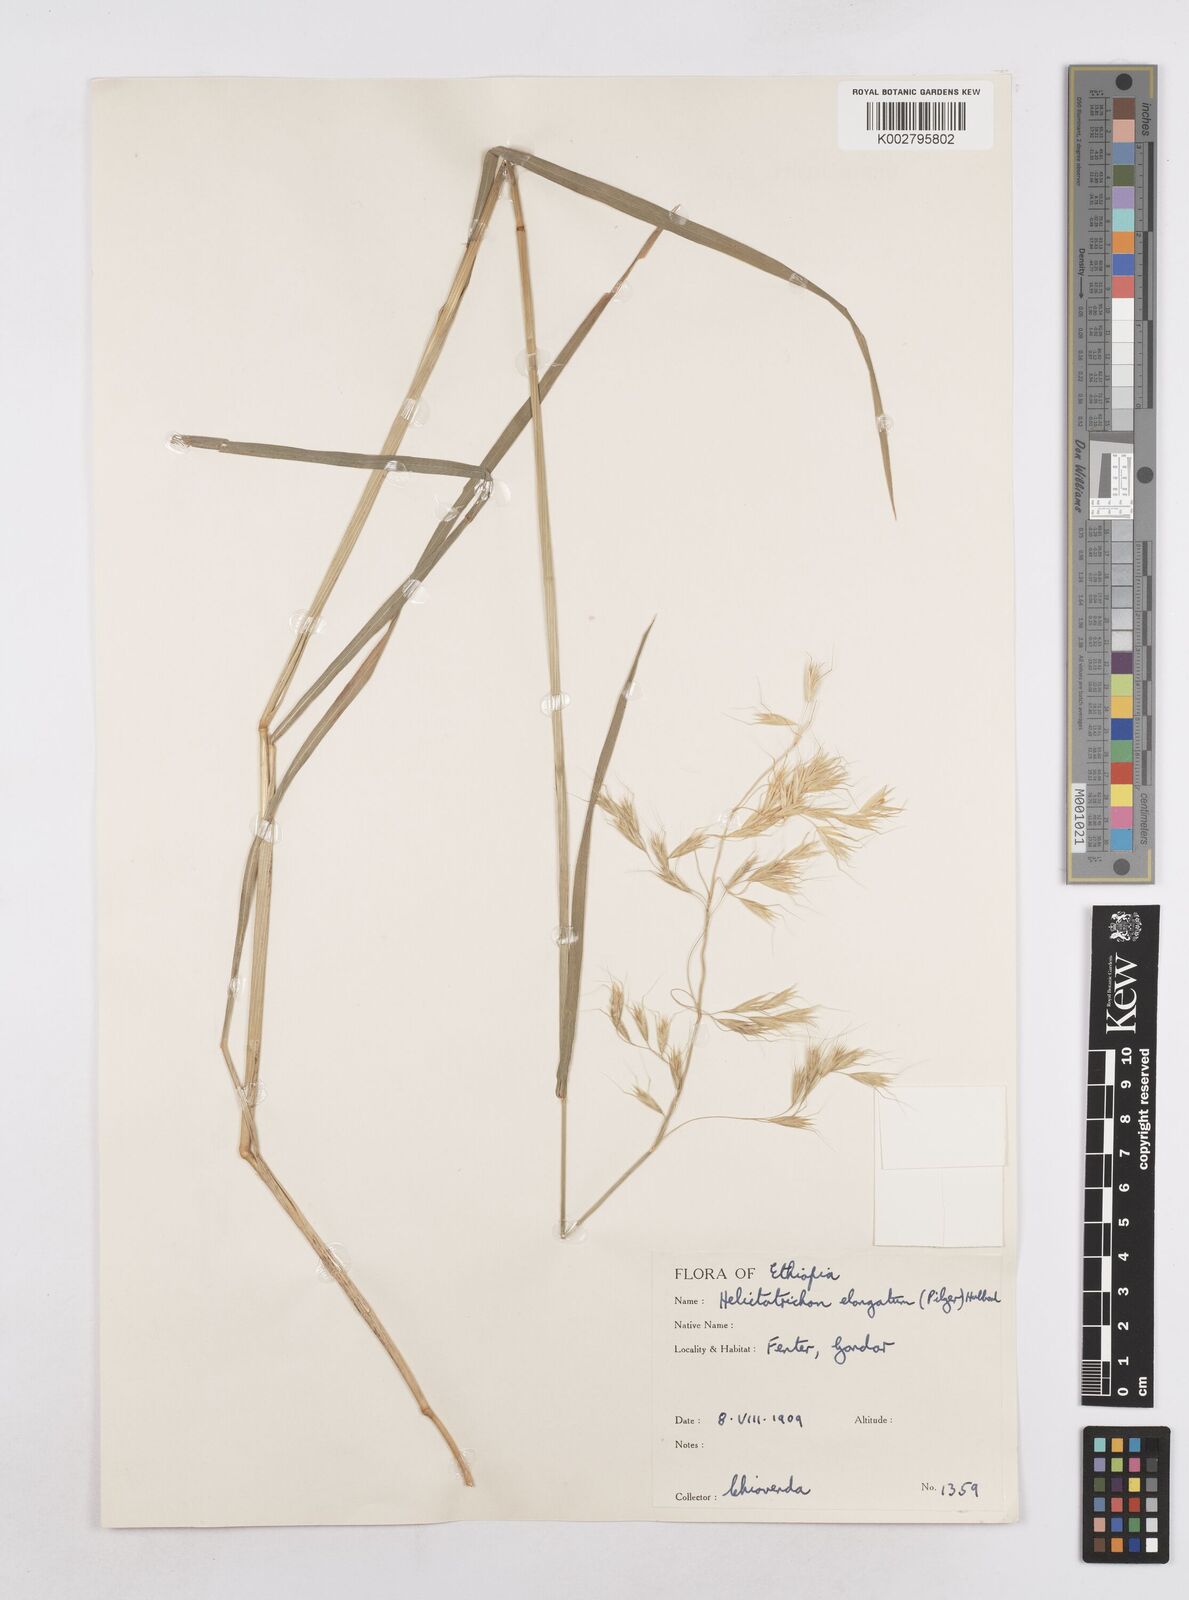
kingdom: Plantae
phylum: Tracheophyta
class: Liliopsida
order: Poales
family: Poaceae
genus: Trisetopsis
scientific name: Trisetopsis elongata
